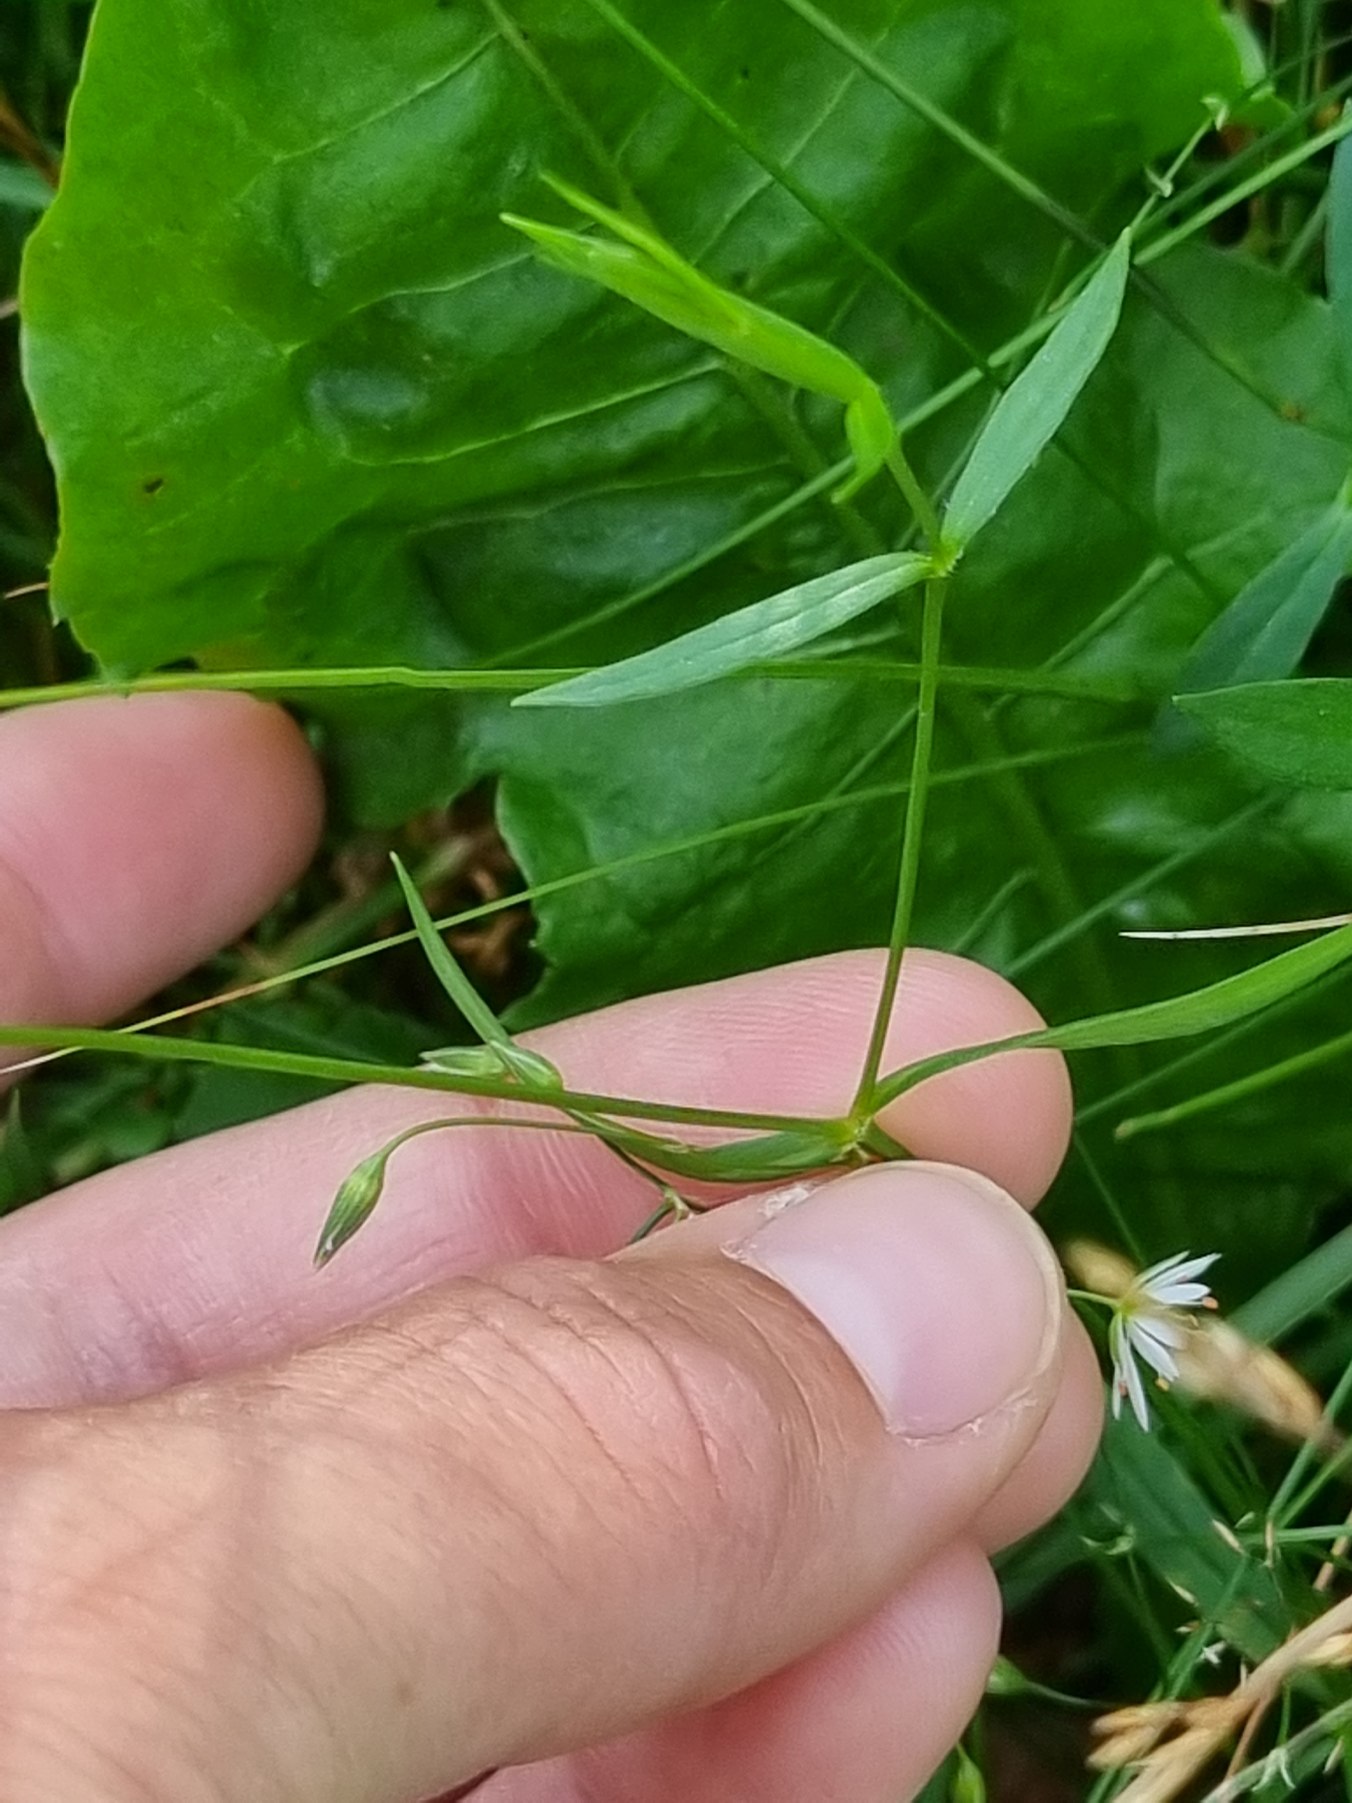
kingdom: Plantae
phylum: Tracheophyta
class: Magnoliopsida
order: Caryophyllales
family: Caryophyllaceae
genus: Stellaria
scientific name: Stellaria palustris
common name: Kær-fladstjerne
